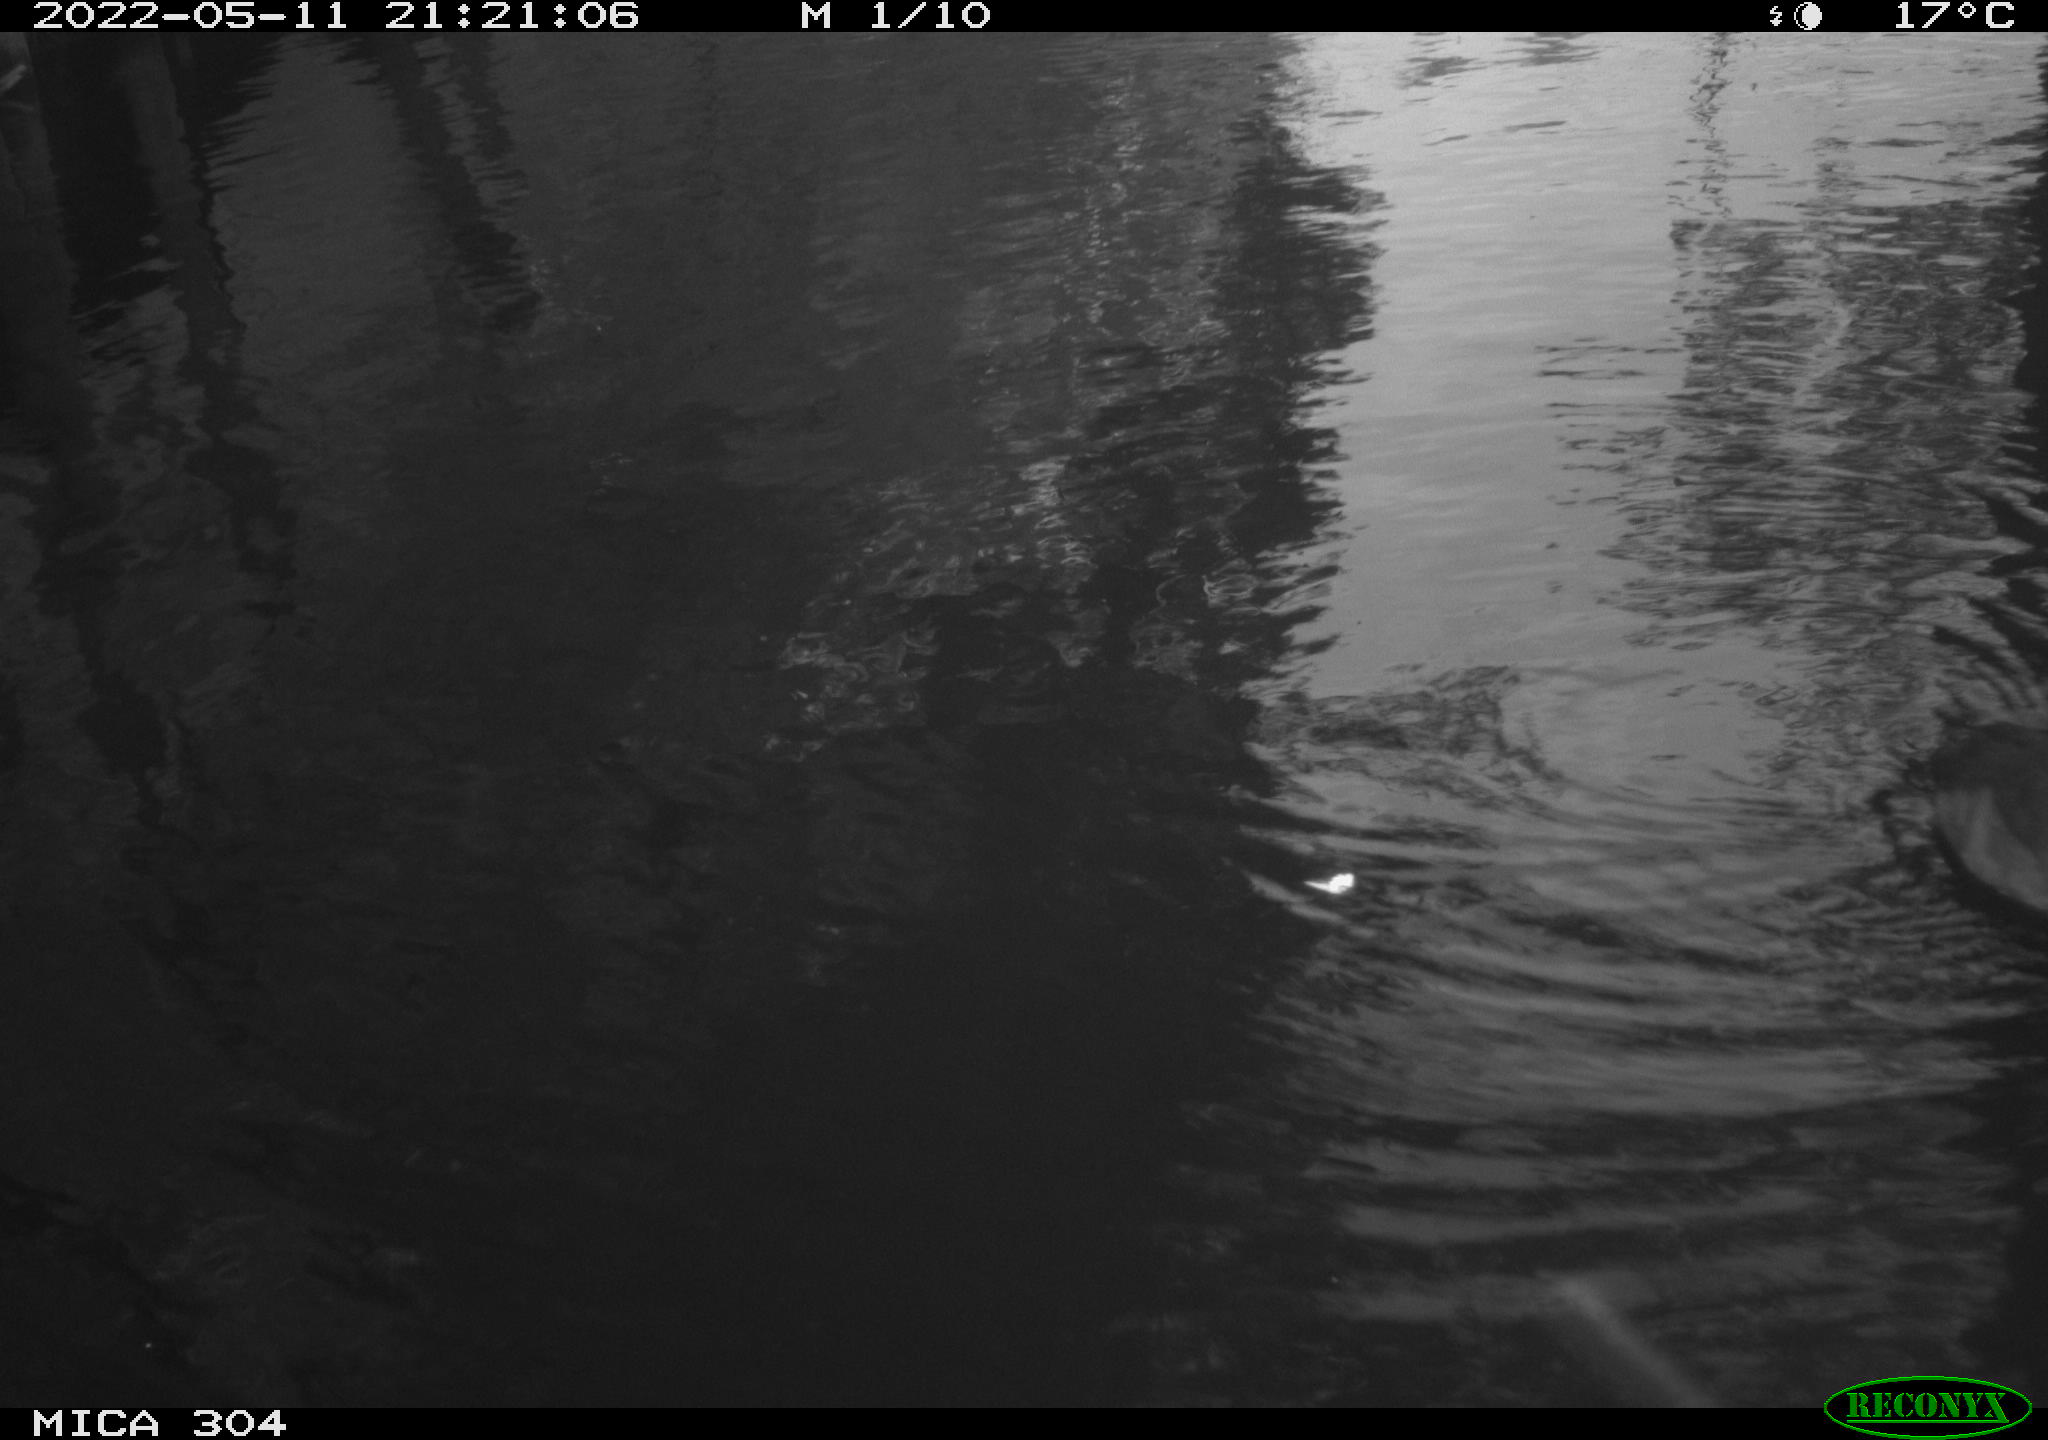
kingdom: Animalia
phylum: Chordata
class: Aves
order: Anseriformes
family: Anatidae
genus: Anas
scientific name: Anas platyrhynchos
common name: Mallard
